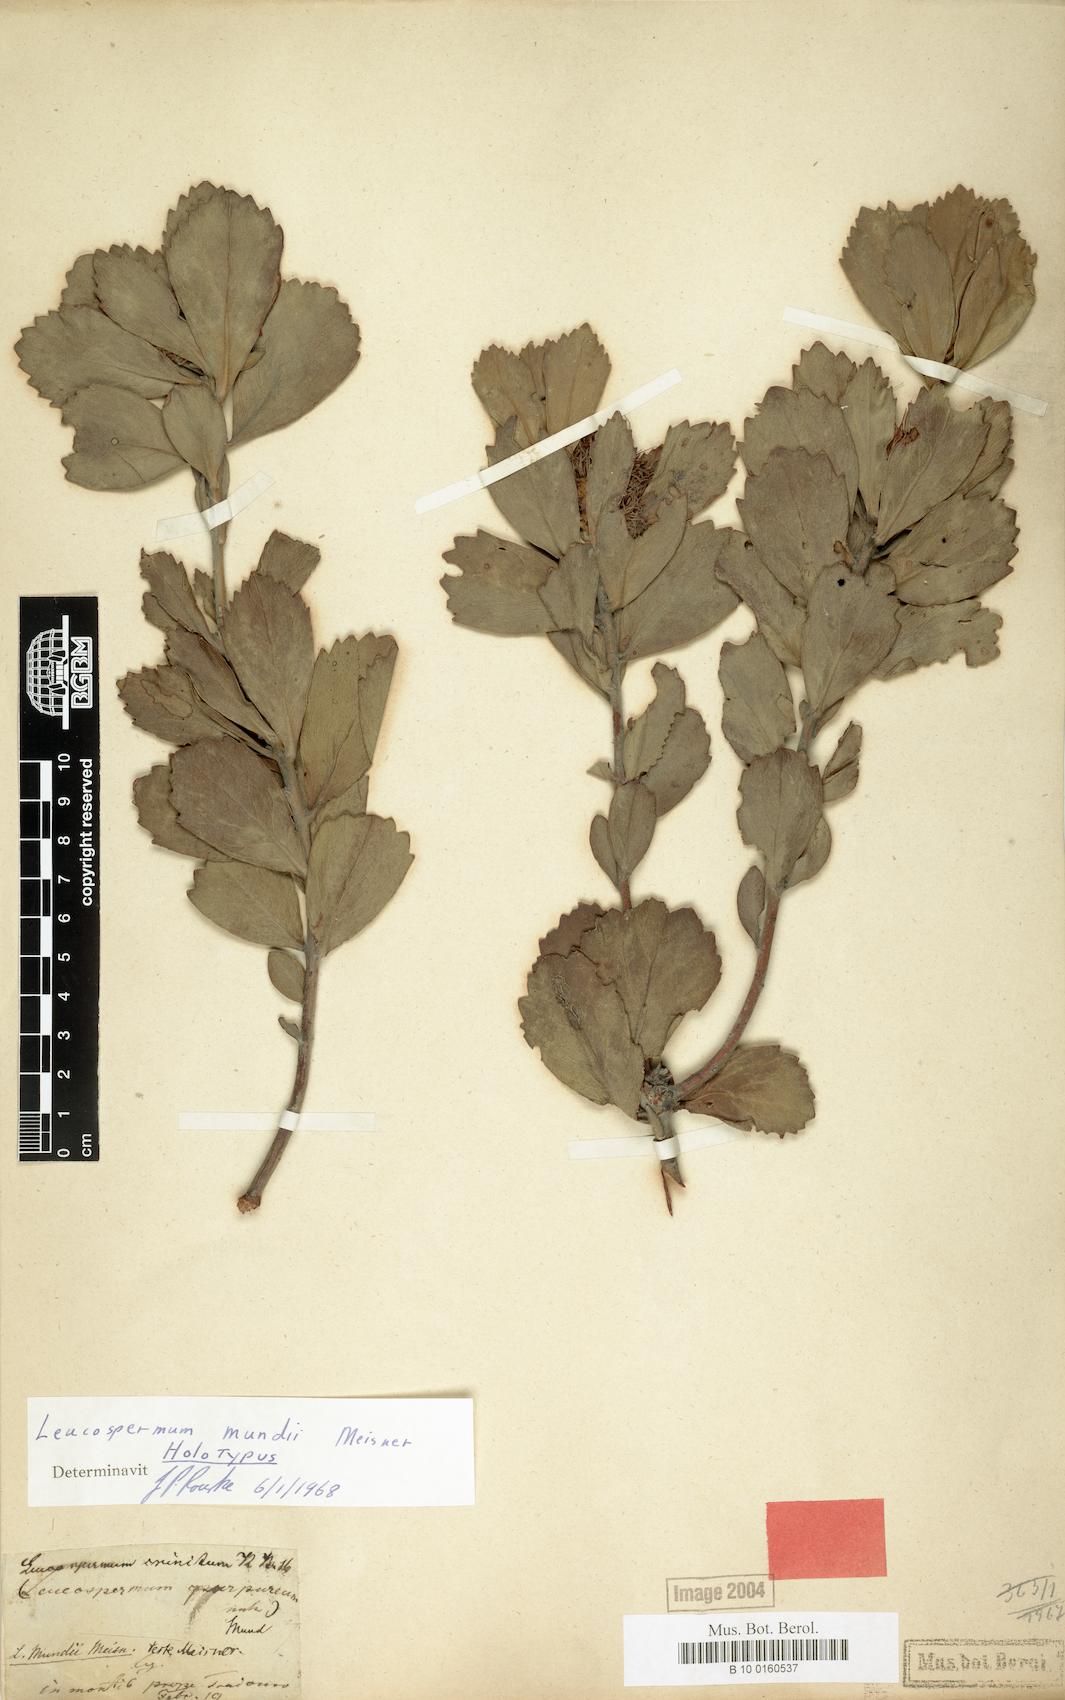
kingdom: Plantae
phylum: Tracheophyta
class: Magnoliopsida
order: Proteales
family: Proteaceae
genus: Leucospermum
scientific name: Leucospermum mundii
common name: Langeberg pincushion
